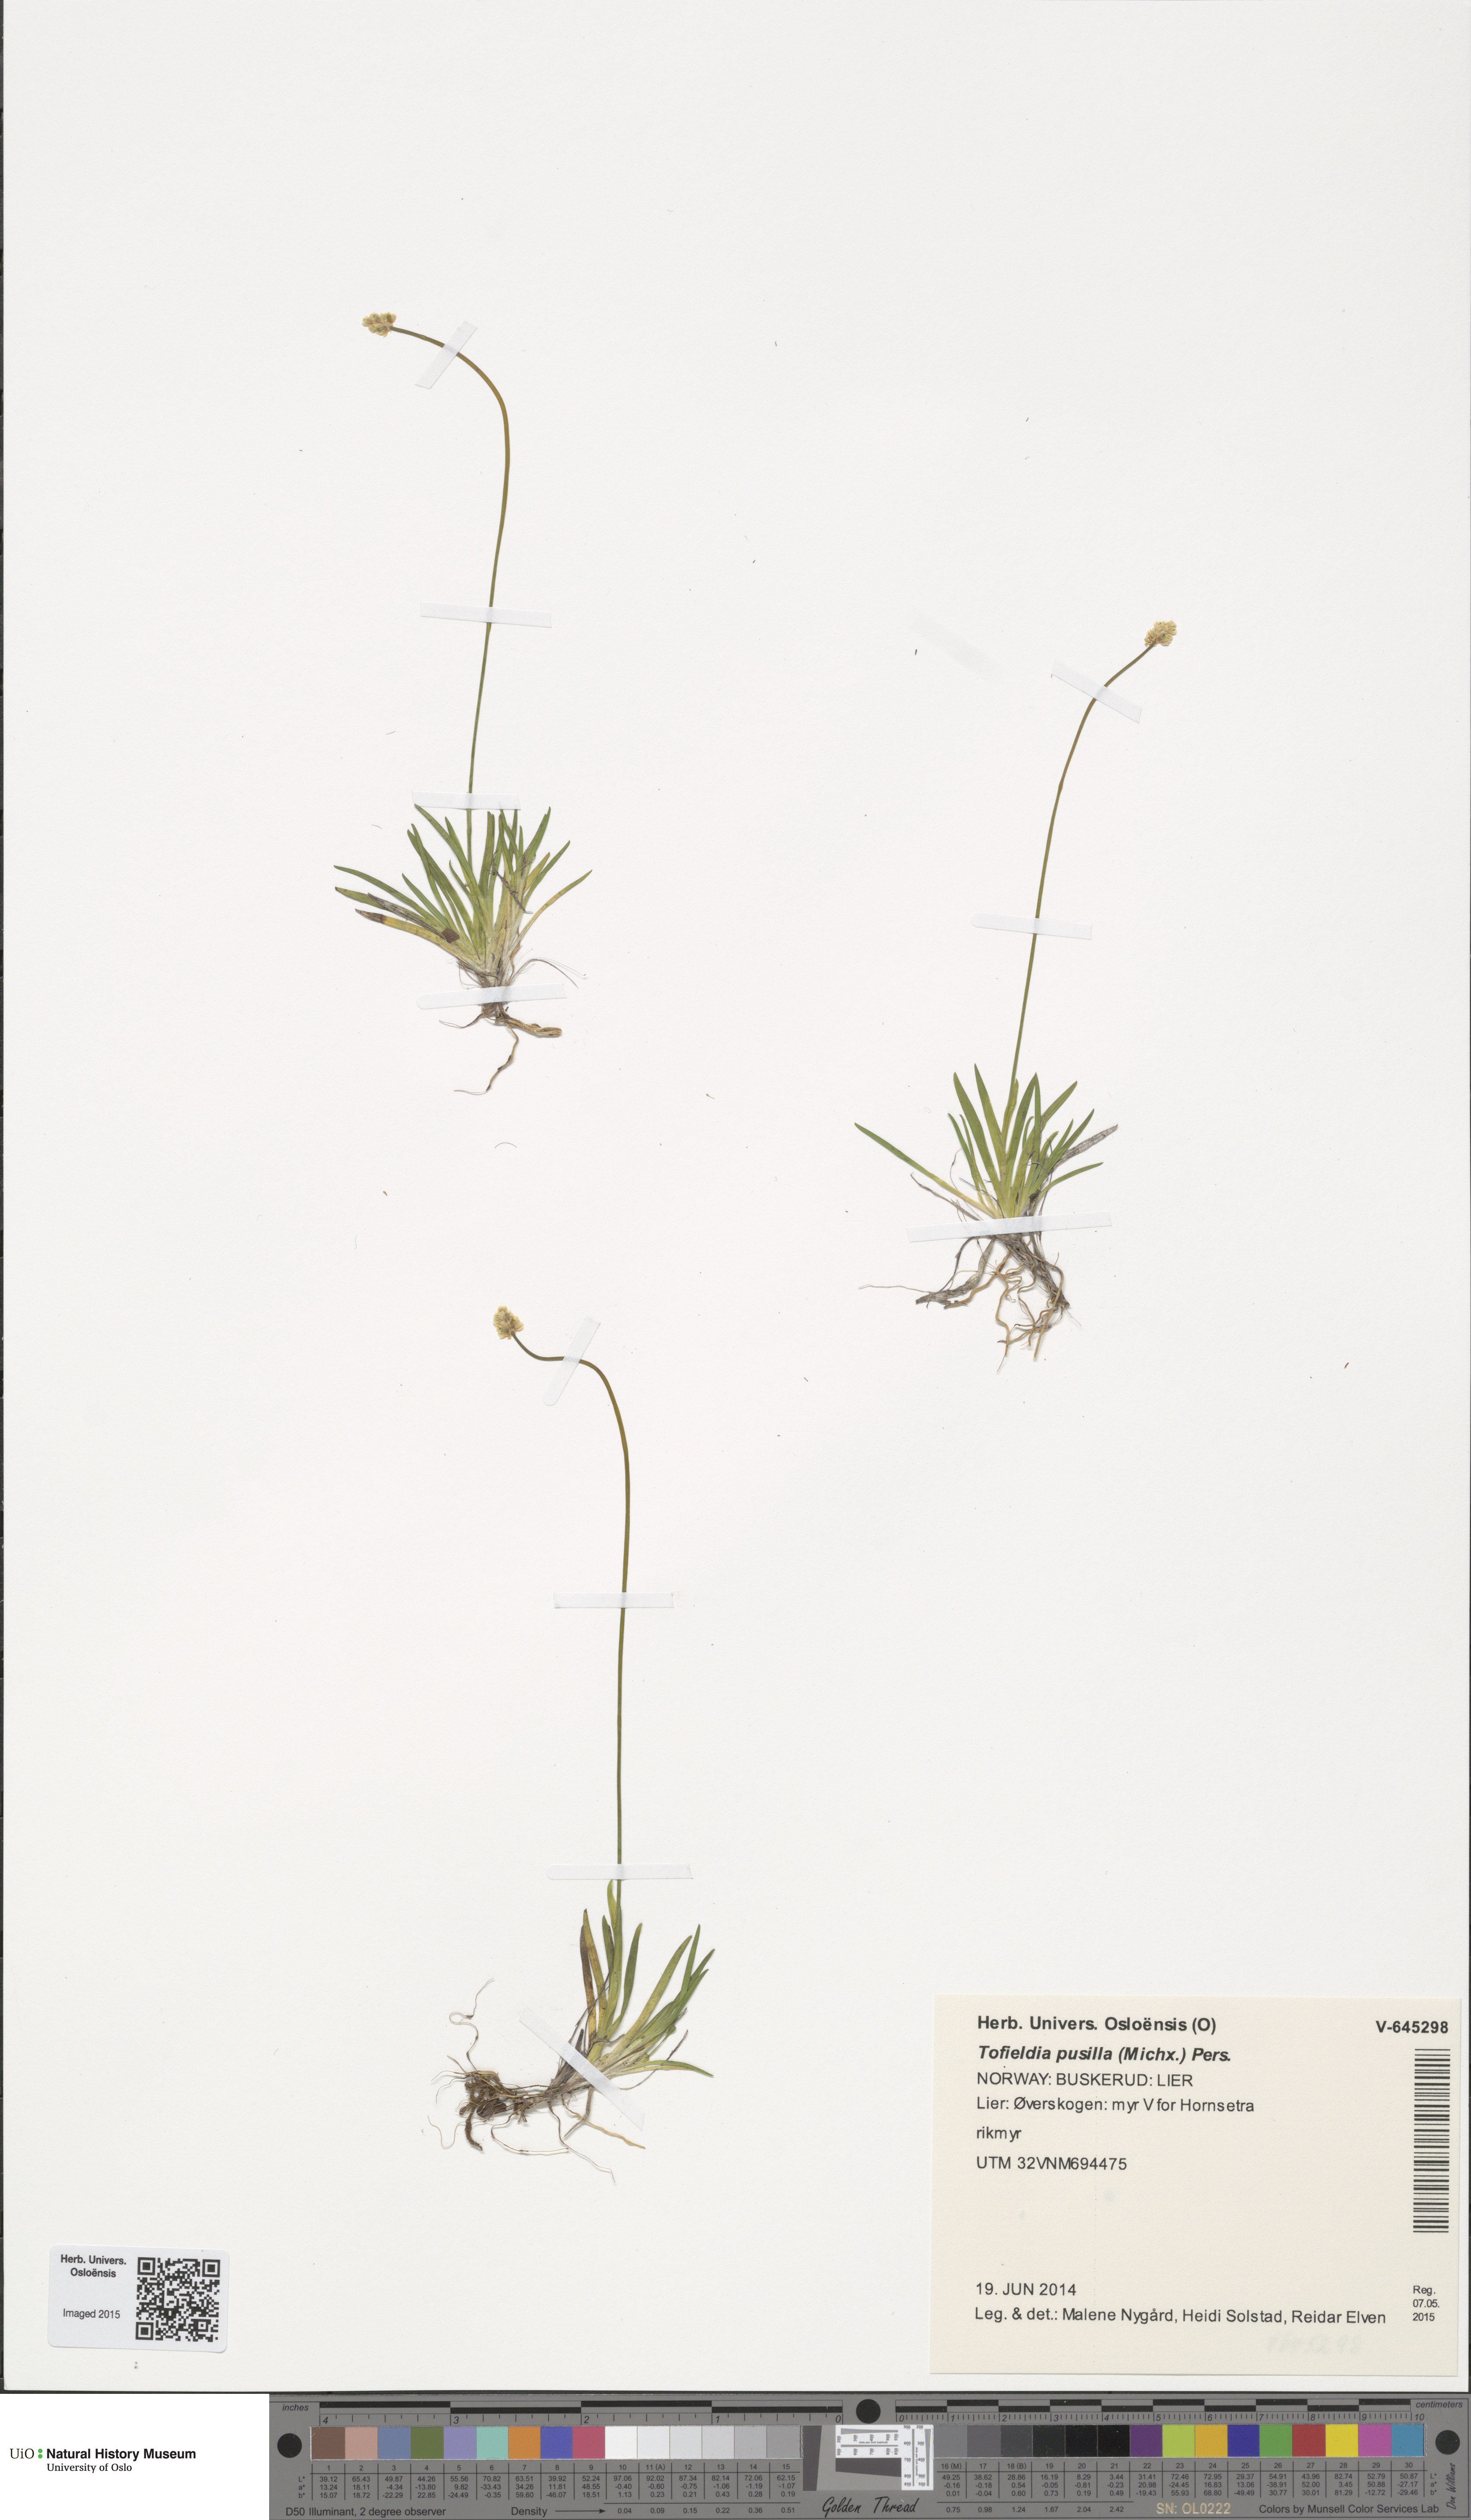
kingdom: Plantae
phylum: Tracheophyta
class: Liliopsida
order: Alismatales
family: Tofieldiaceae
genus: Tofieldia
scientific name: Tofieldia pusilla
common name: Scottish false asphodel
